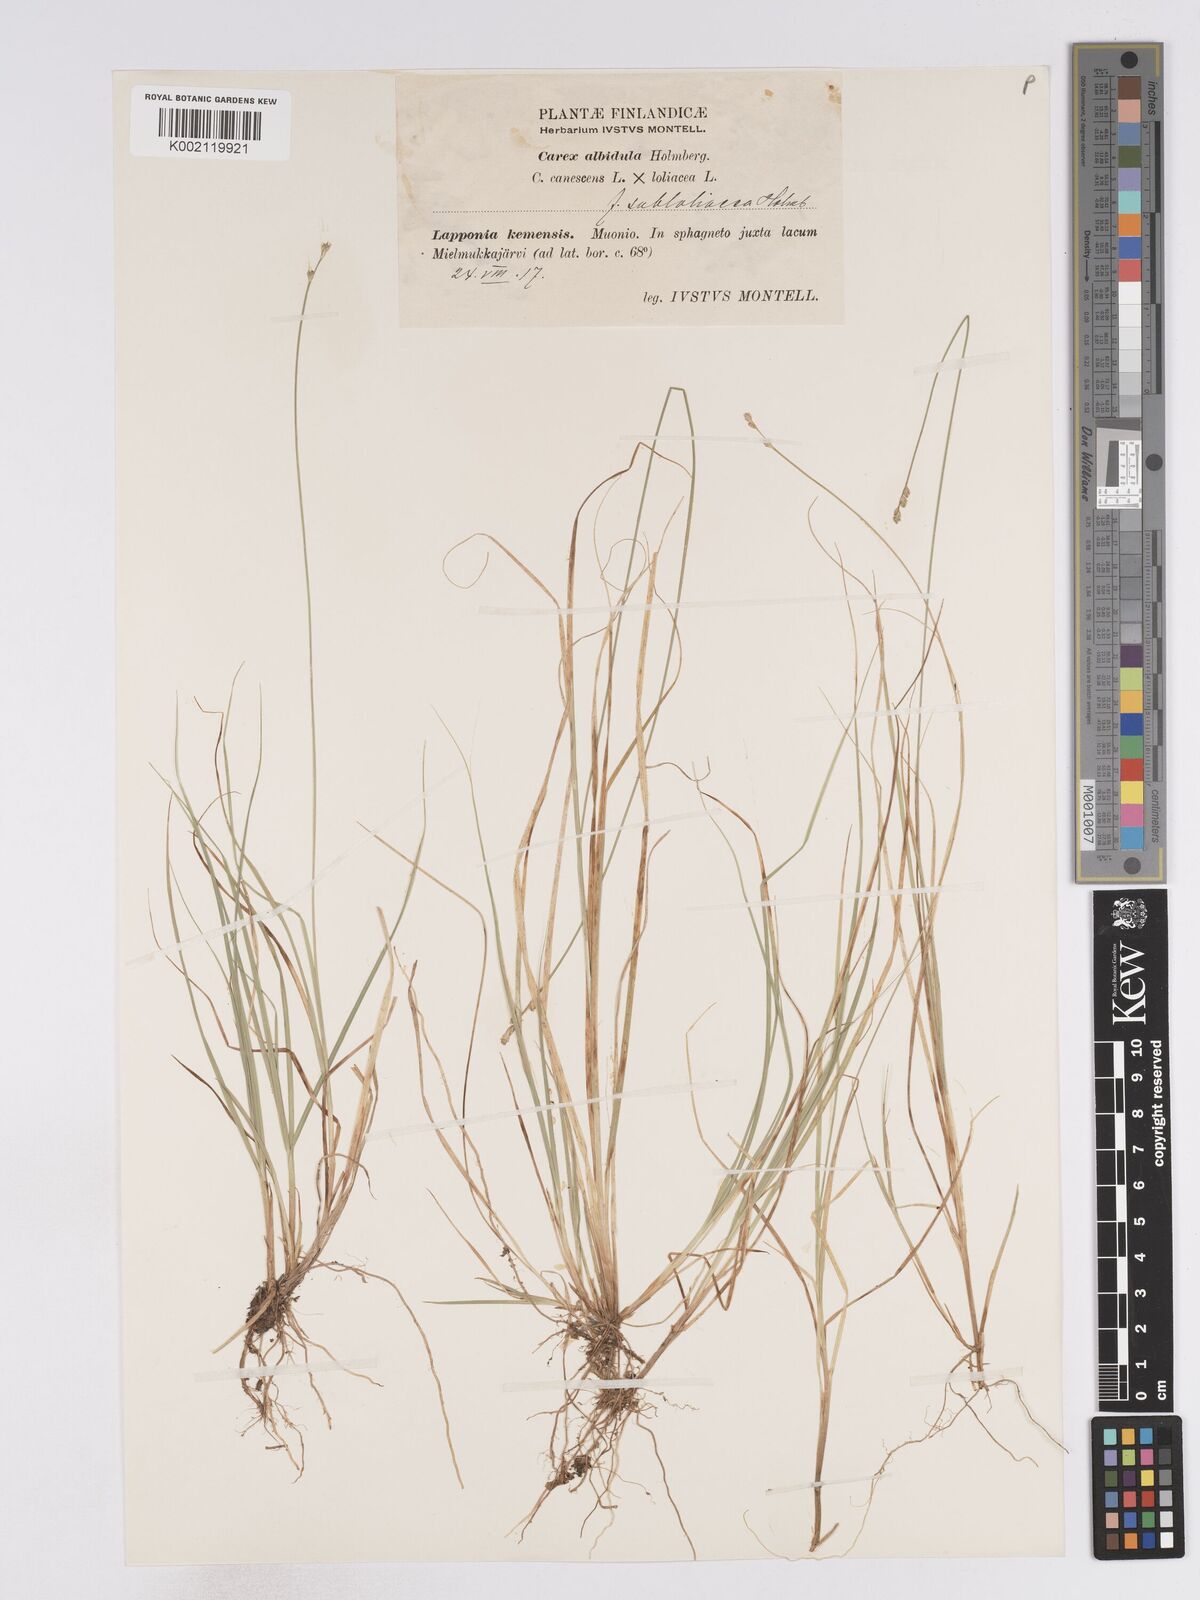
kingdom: Plantae
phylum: Tracheophyta
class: Liliopsida
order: Poales
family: Cyperaceae
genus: Carex
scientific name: Carex curta
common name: White sedge
